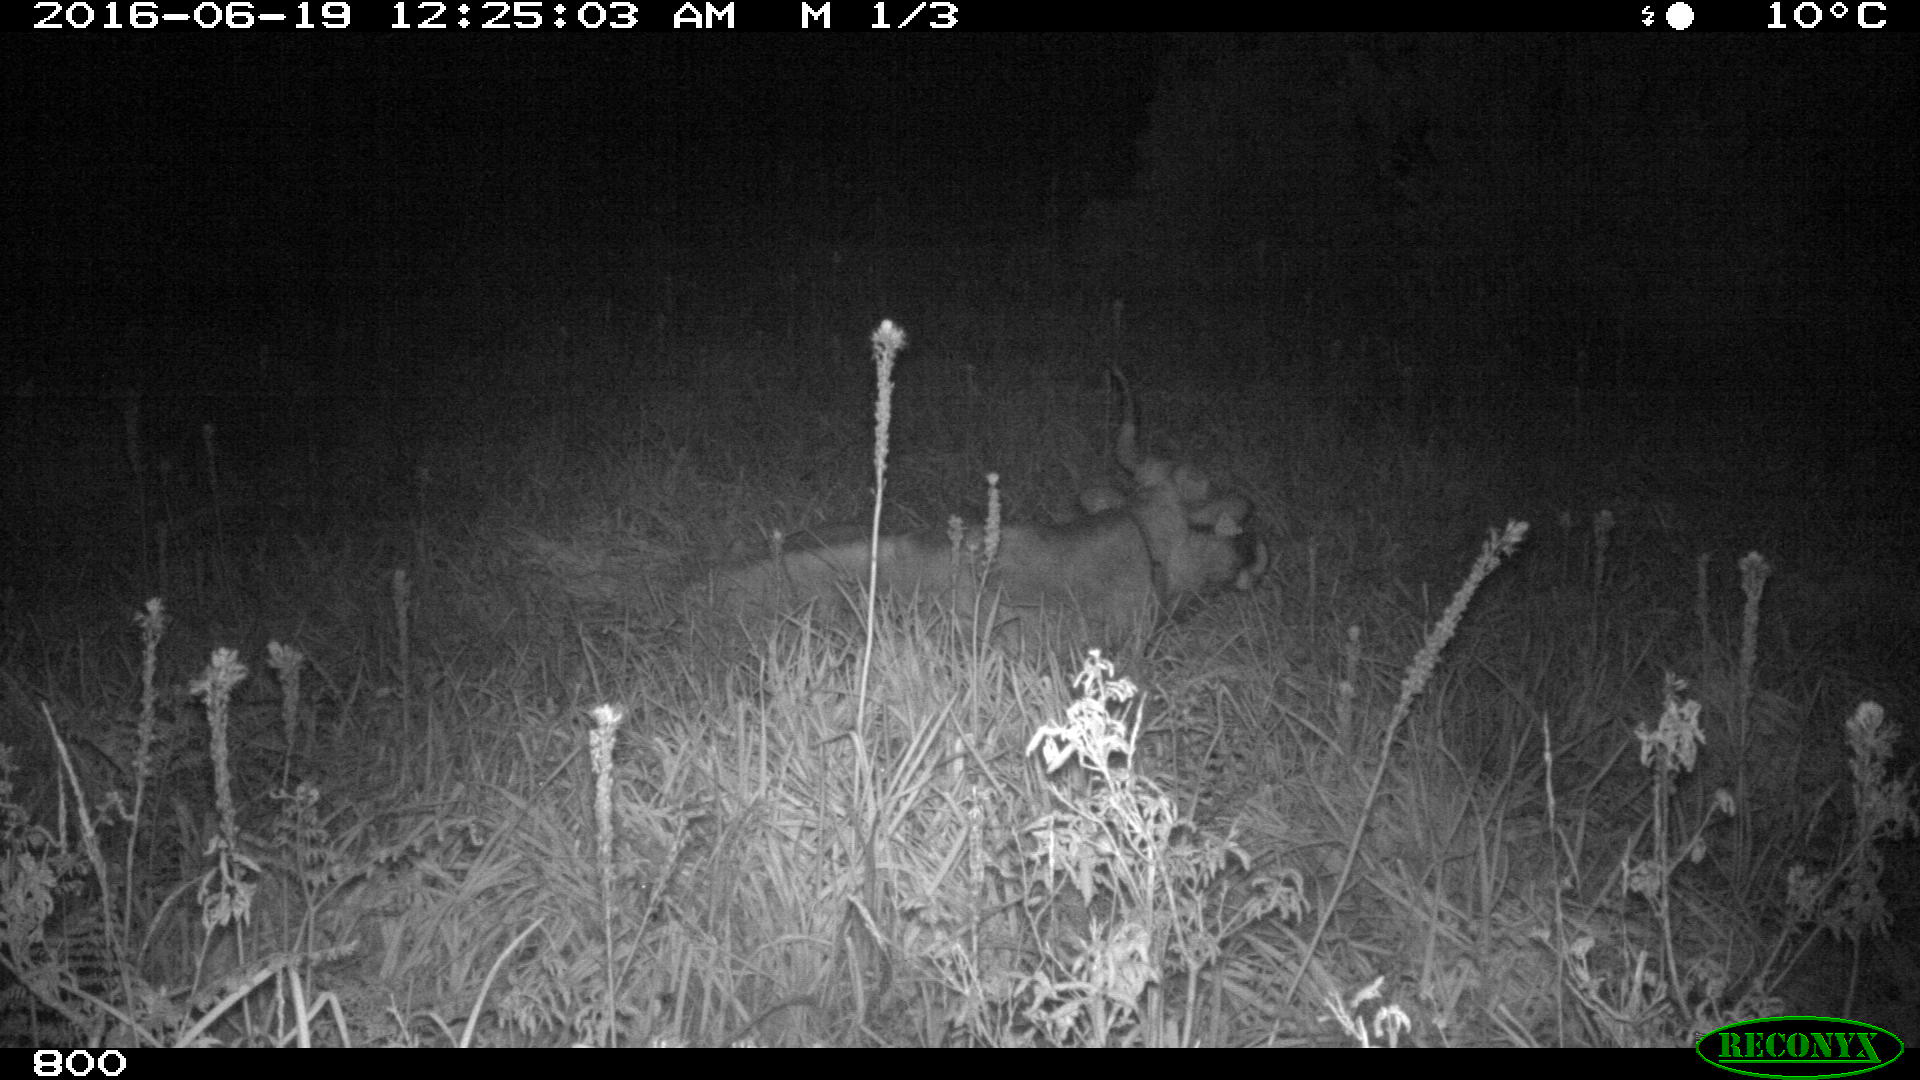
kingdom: Animalia
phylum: Chordata
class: Mammalia
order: Artiodactyla
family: Bovidae
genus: Bos
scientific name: Bos taurus
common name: Domesticated cattle
